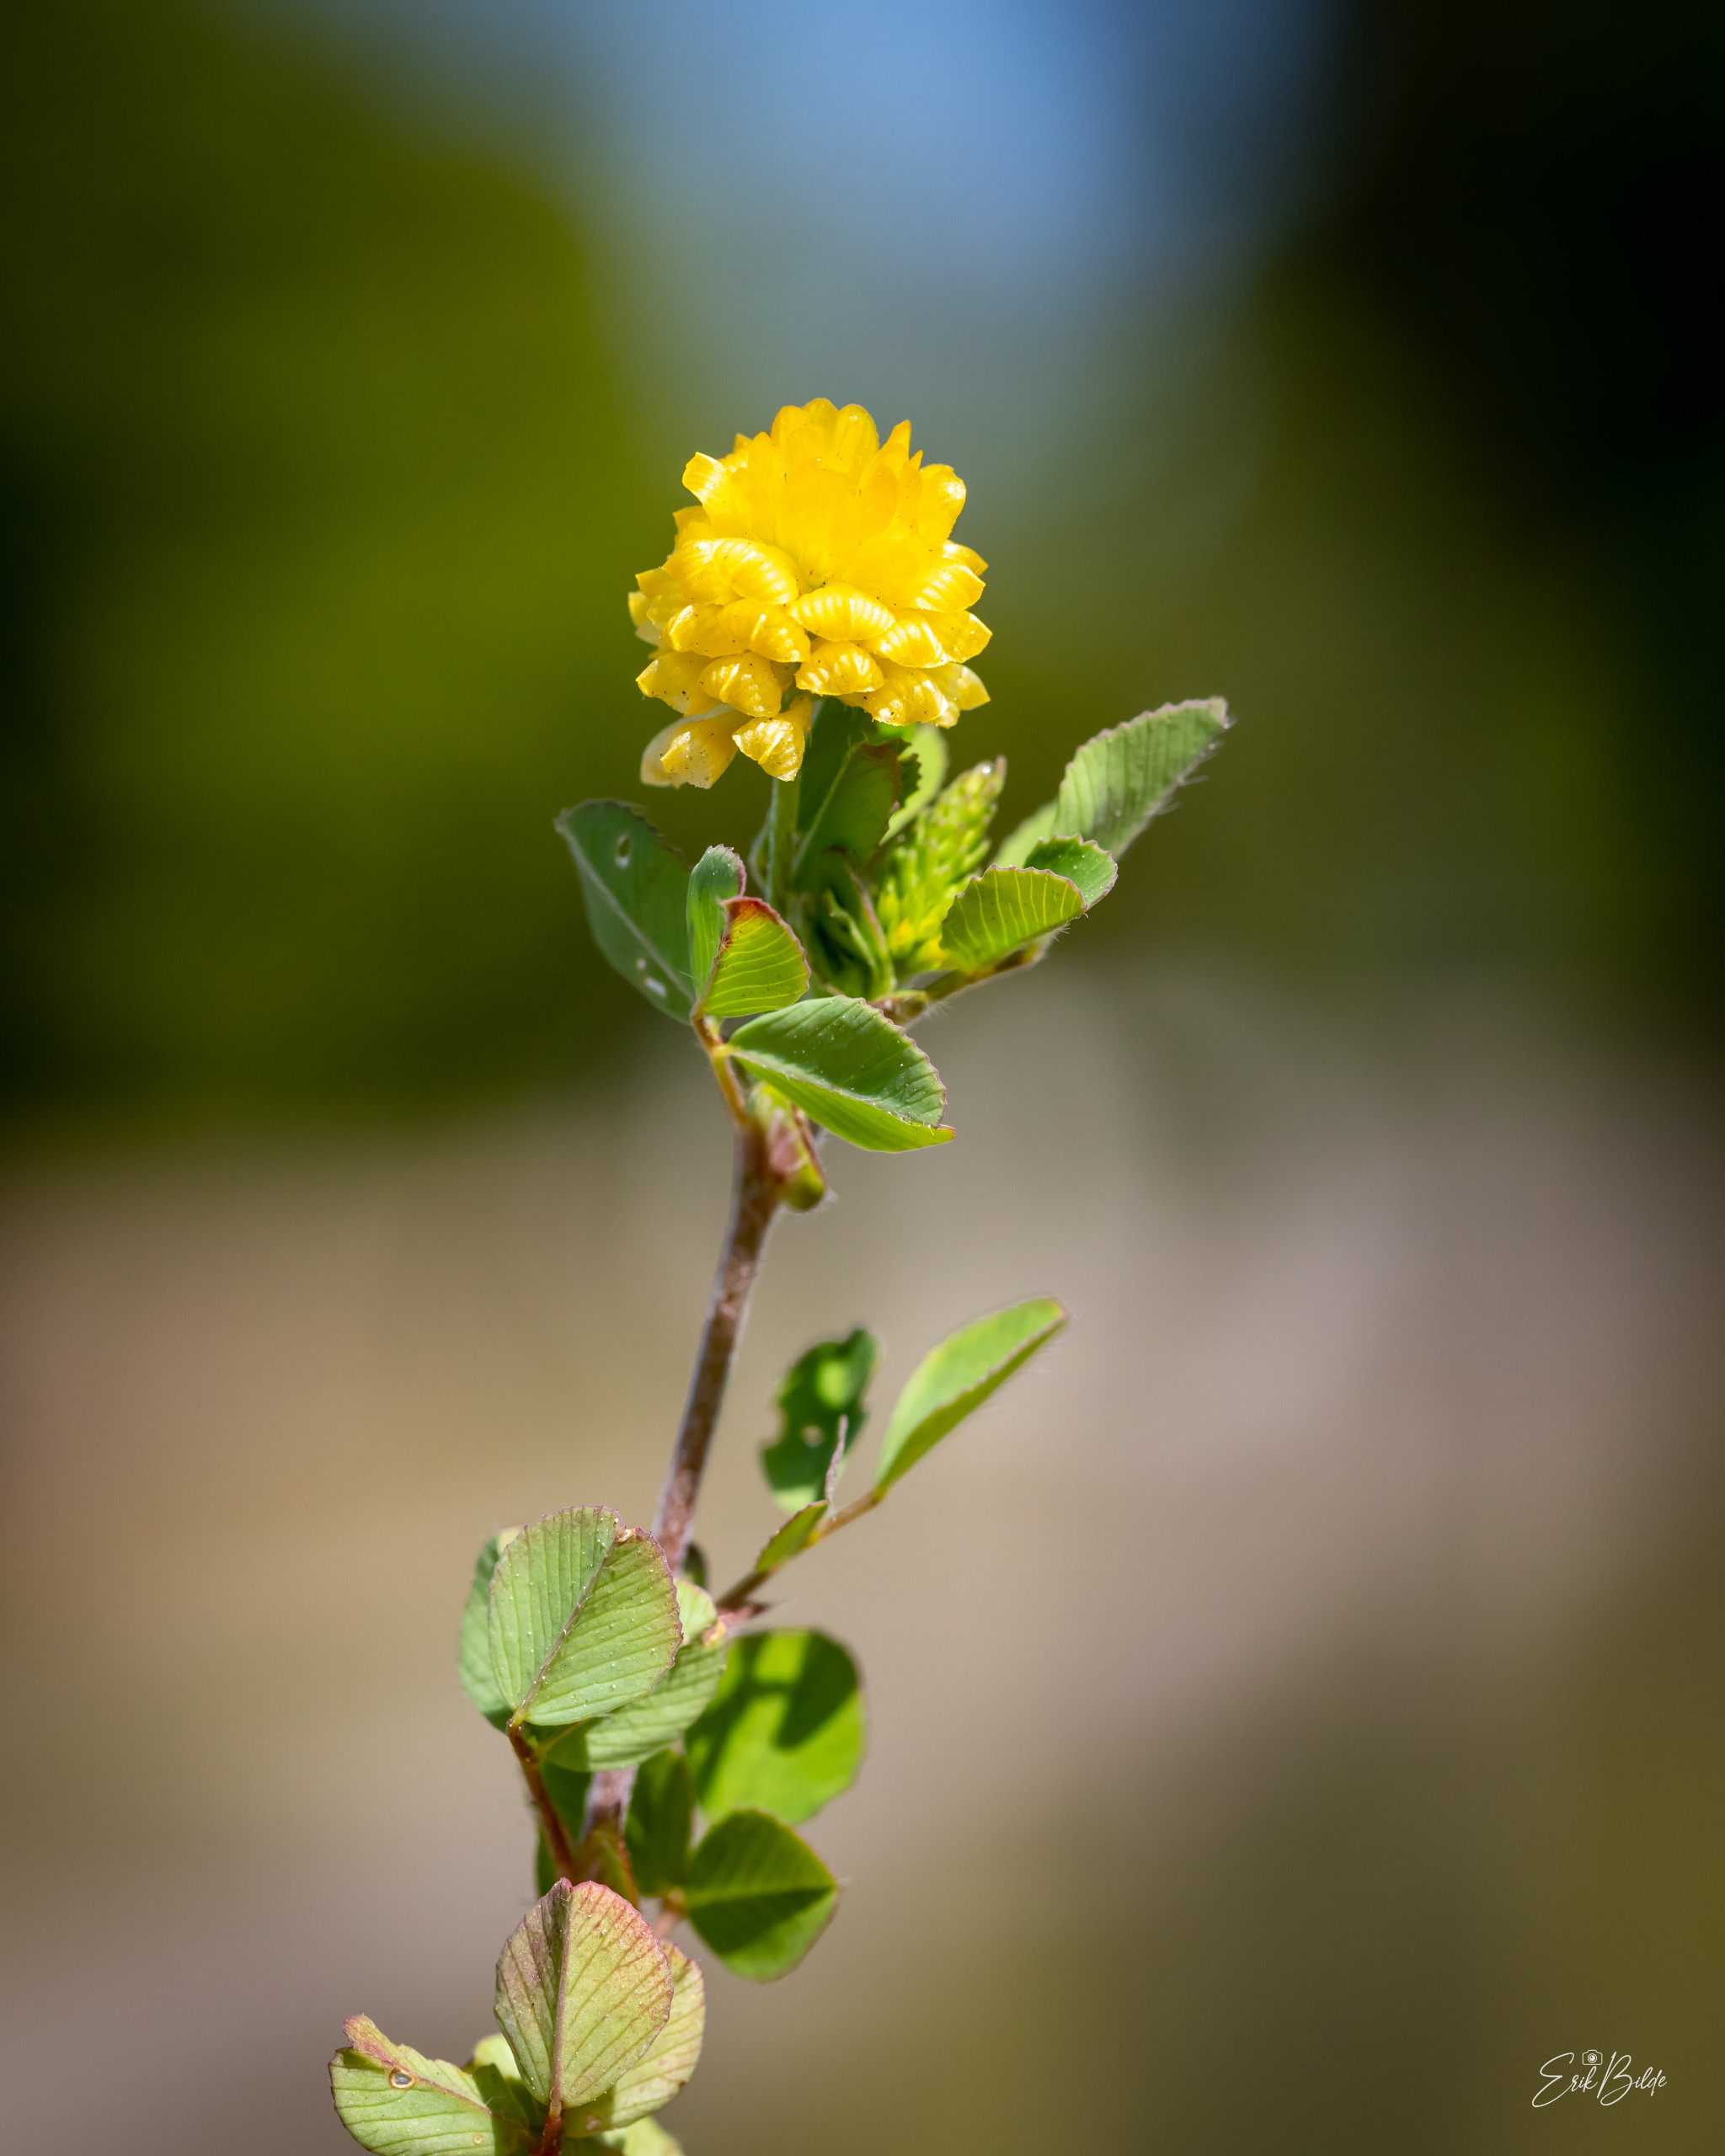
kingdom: Plantae
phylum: Tracheophyta
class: Magnoliopsida
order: Fabales
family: Fabaceae
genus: Trifolium
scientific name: Trifolium campestre
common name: Gul kløver
